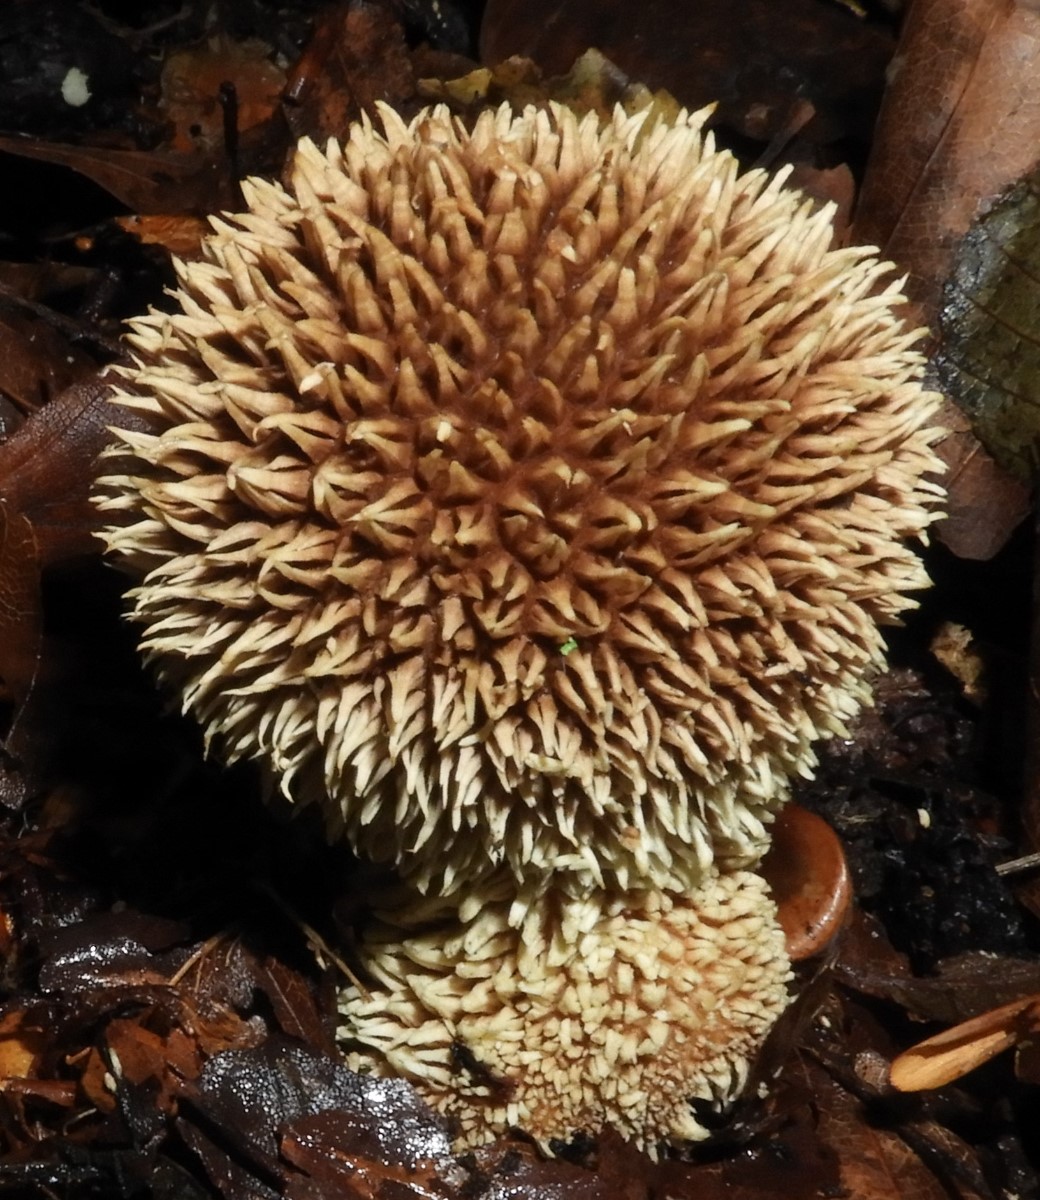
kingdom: Fungi
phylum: Basidiomycota
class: Agaricomycetes
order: Agaricales
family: Lycoperdaceae
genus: Lycoperdon
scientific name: Lycoperdon echinatum
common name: pindsvine-støvbold
